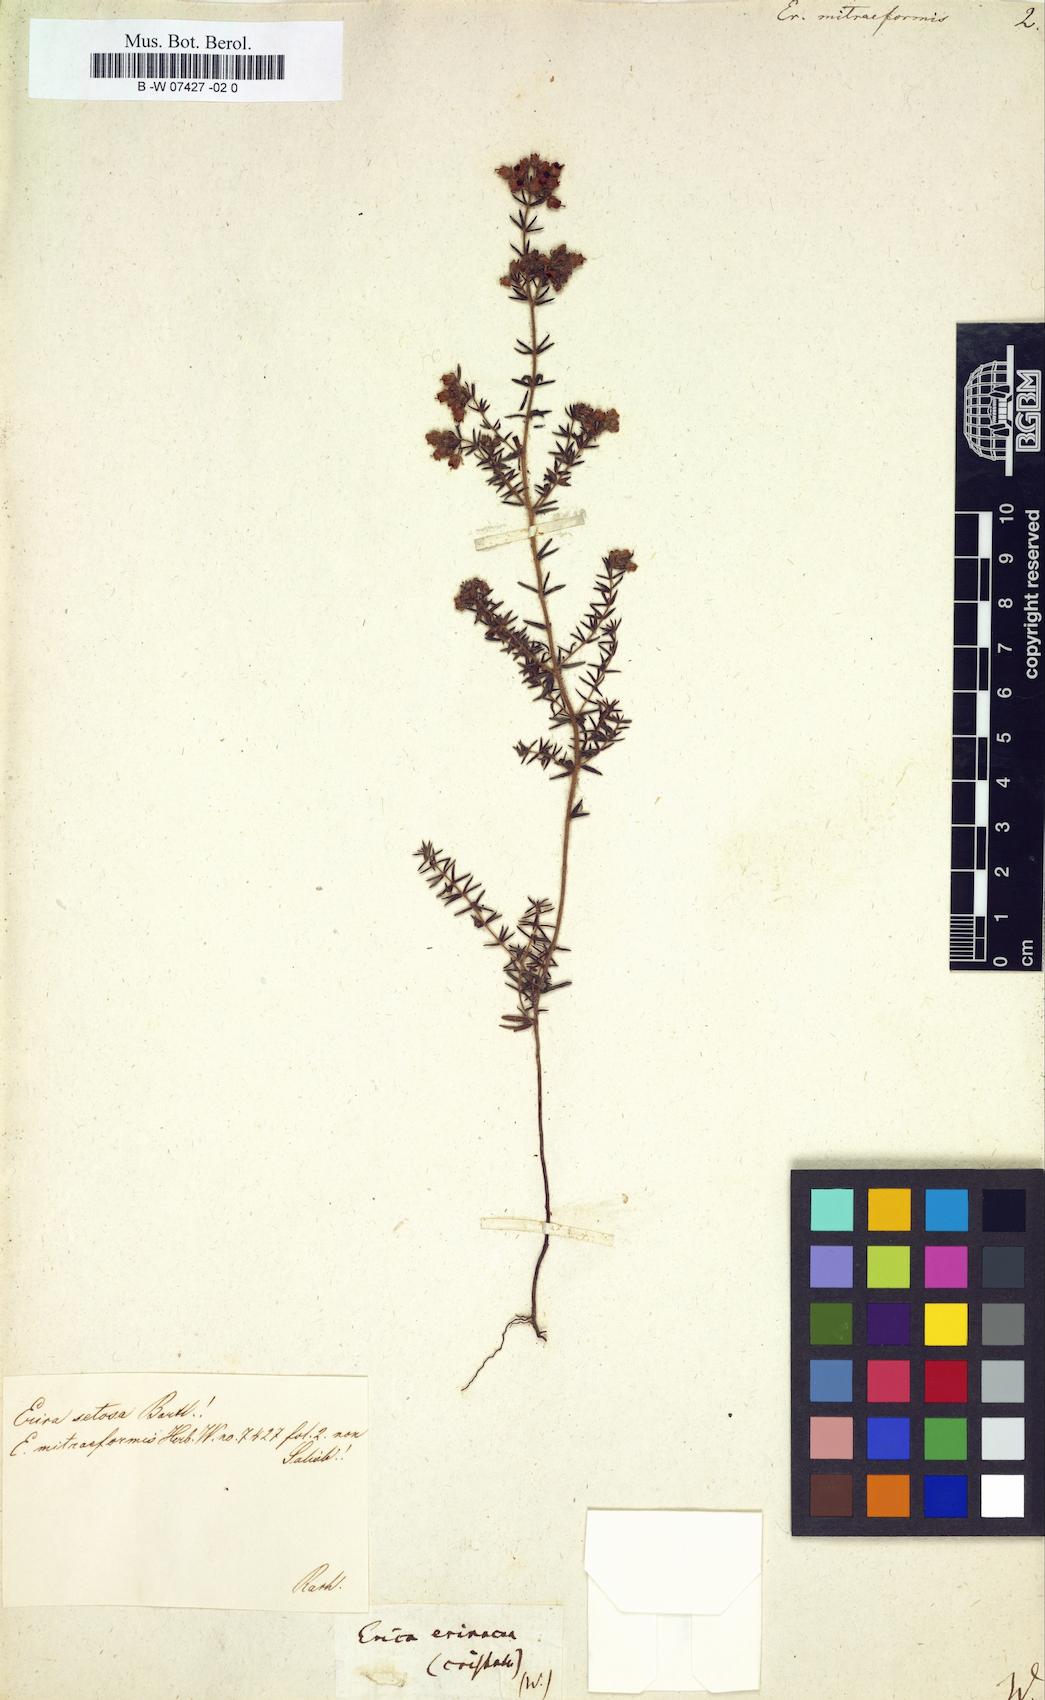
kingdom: Plantae
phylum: Tracheophyta
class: Magnoliopsida
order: Ericales
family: Ericaceae
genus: Erica
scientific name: Erica mitraeformis
